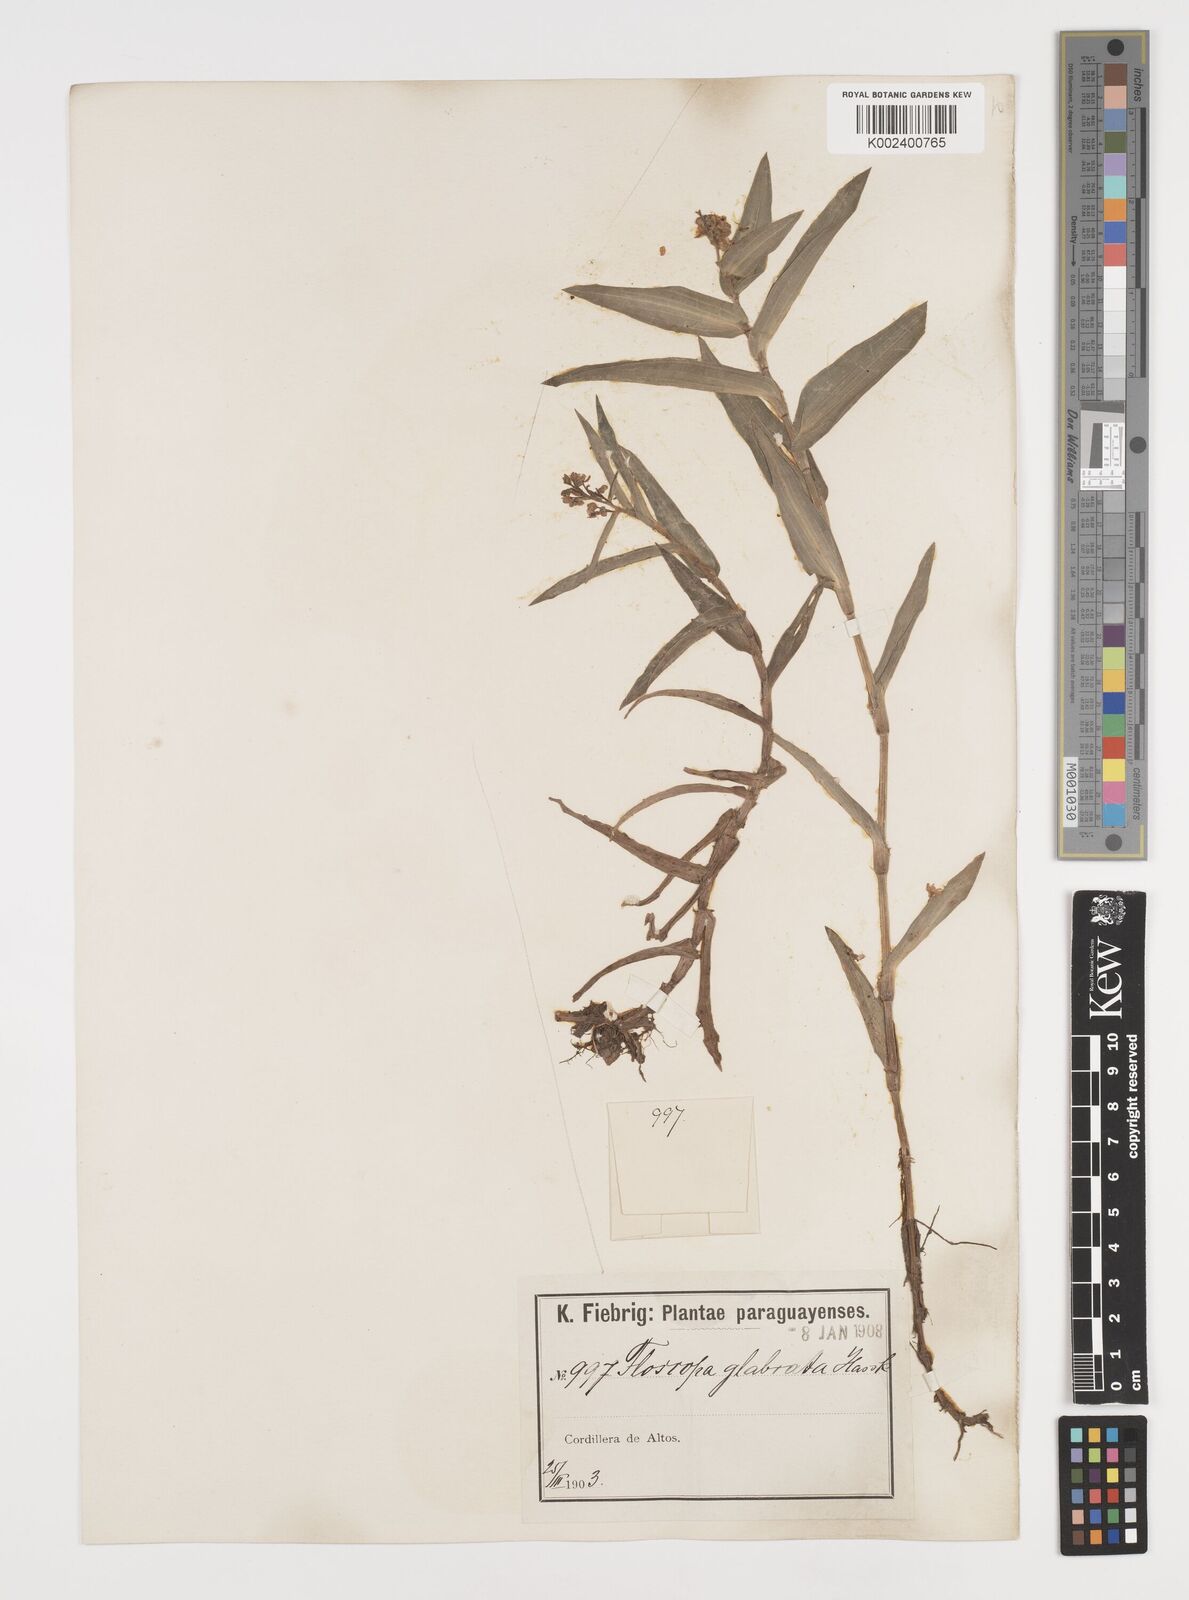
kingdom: Plantae
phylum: Tracheophyta
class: Liliopsida
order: Commelinales
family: Commelinaceae
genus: Floscopa
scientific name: Floscopa glabrata
